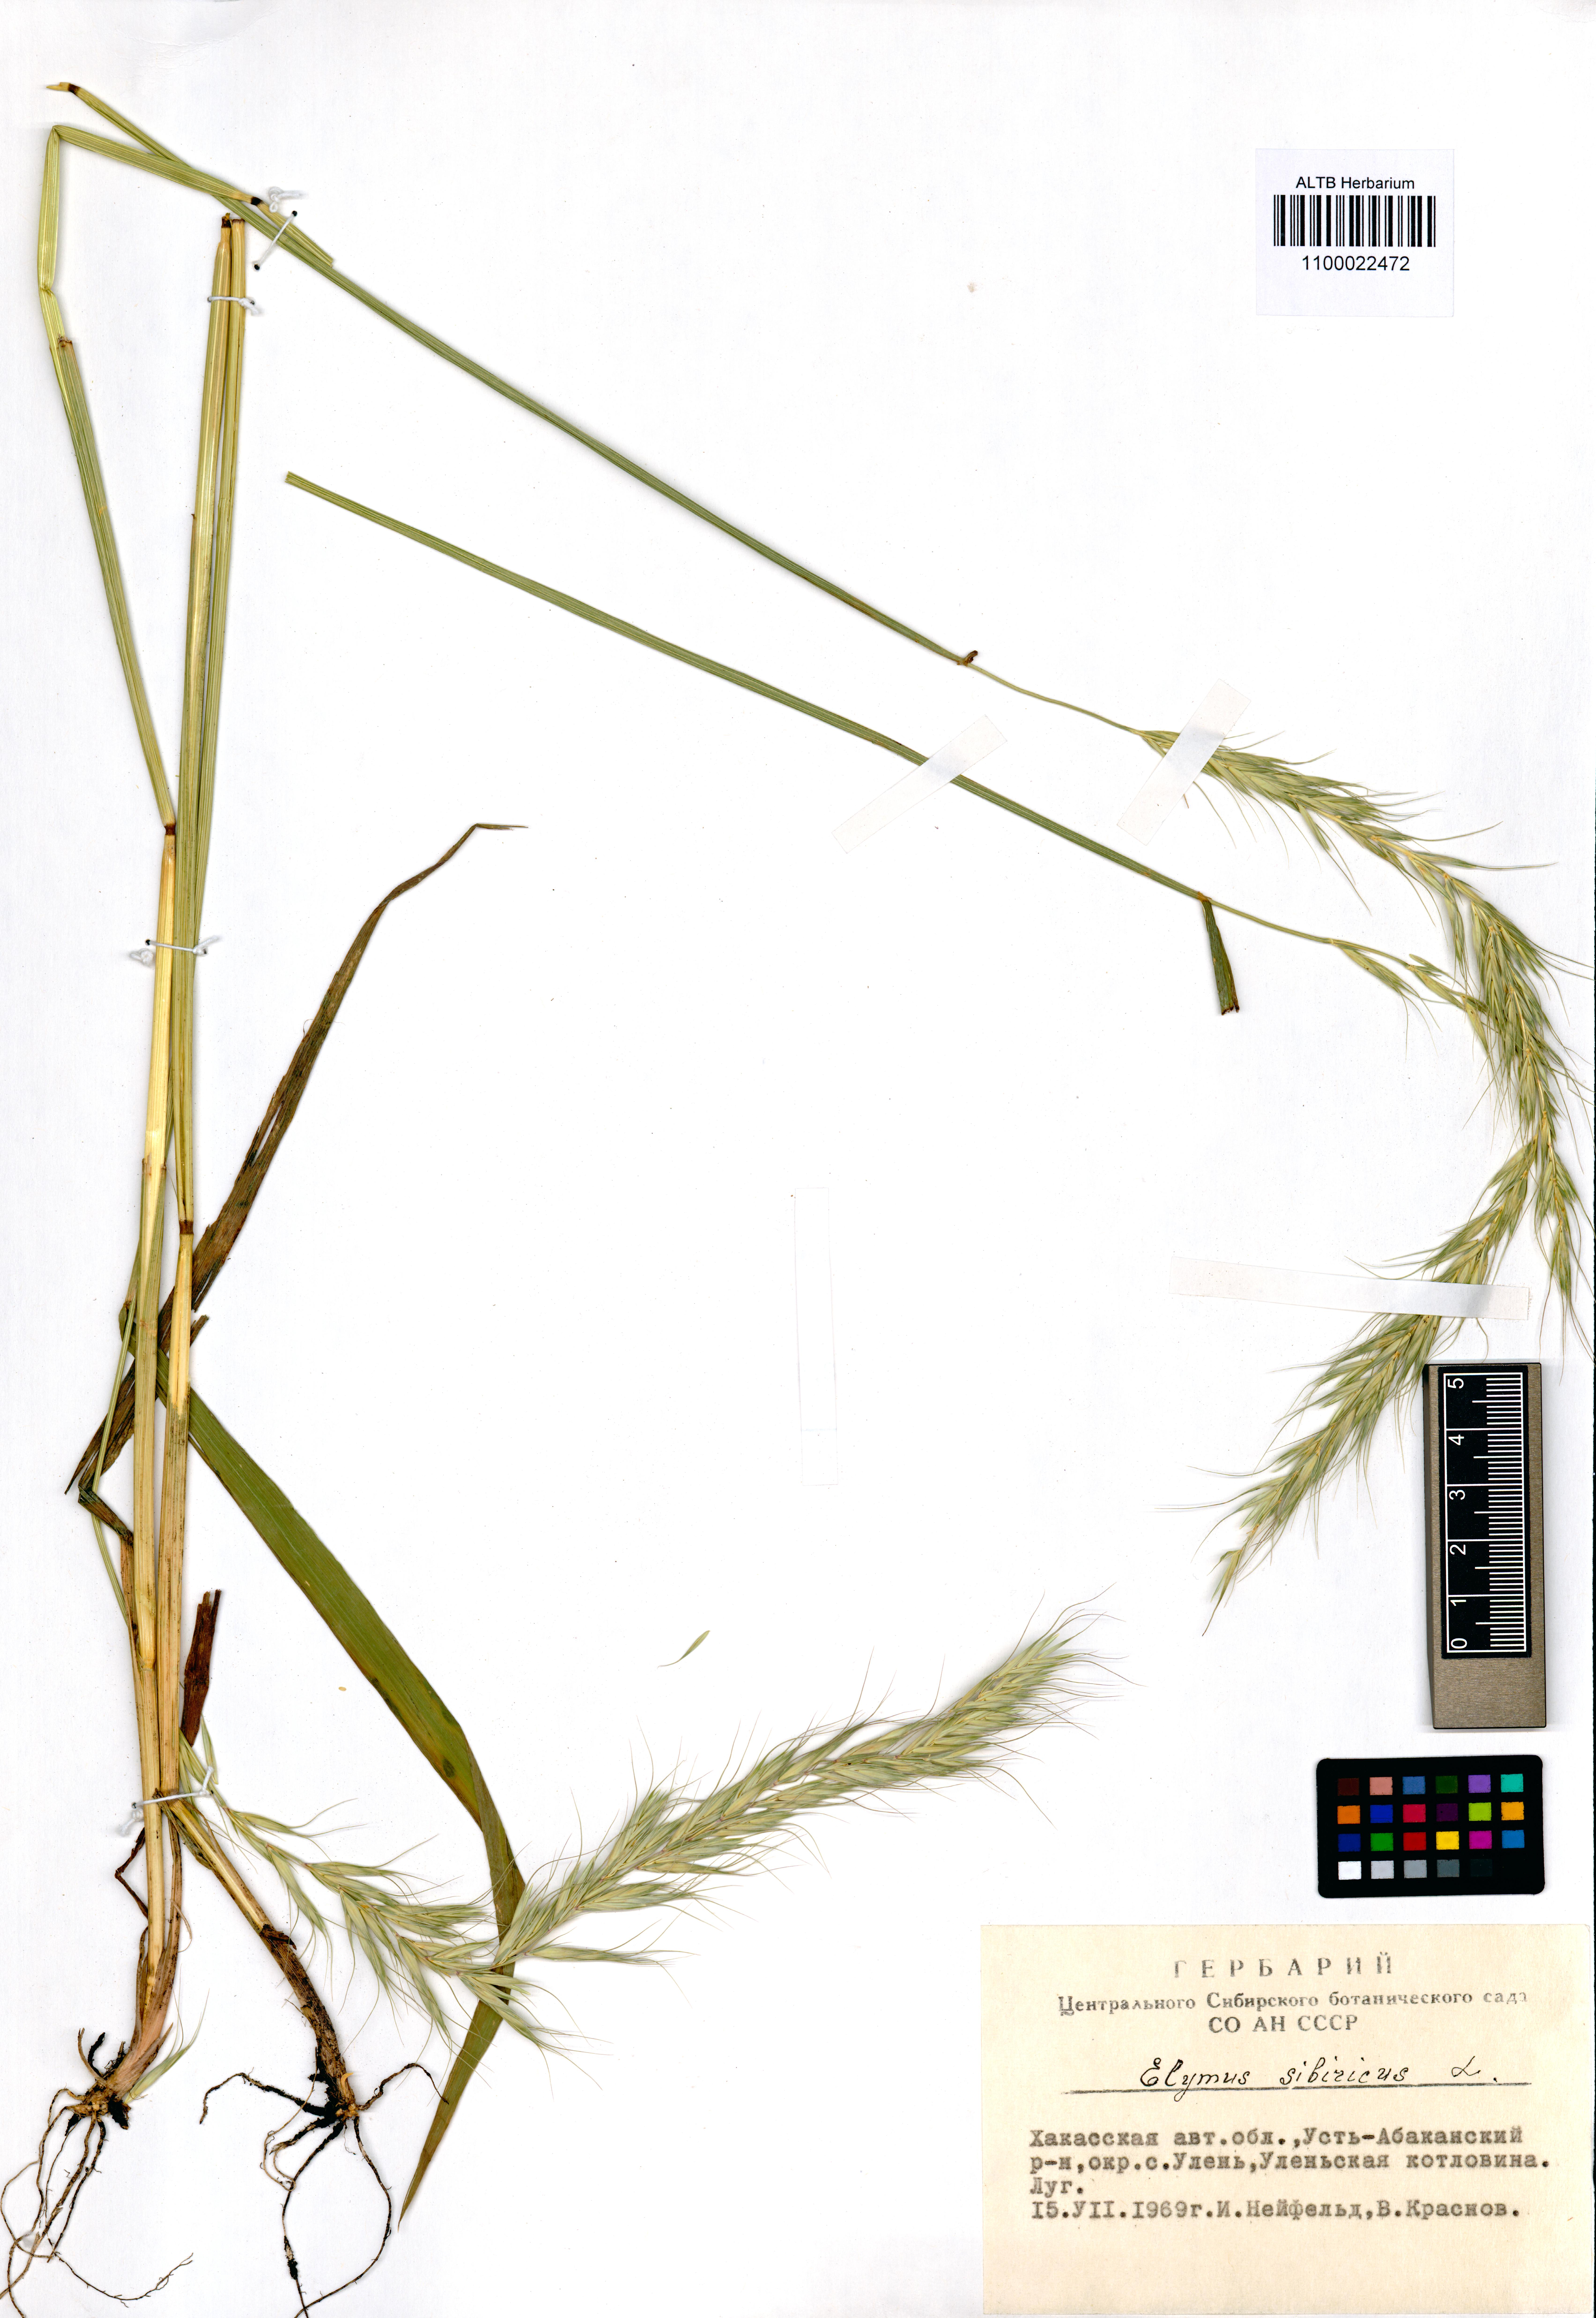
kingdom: Plantae
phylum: Tracheophyta
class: Liliopsida
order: Poales
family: Poaceae
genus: Elymus
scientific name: Elymus sibiricus
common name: Siberian wildrye
